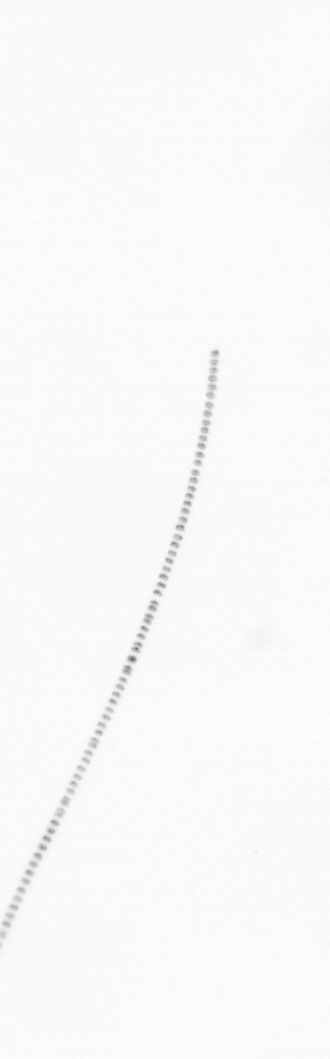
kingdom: Chromista
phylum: Ochrophyta
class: Bacillariophyceae
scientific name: Bacillariophyceae
